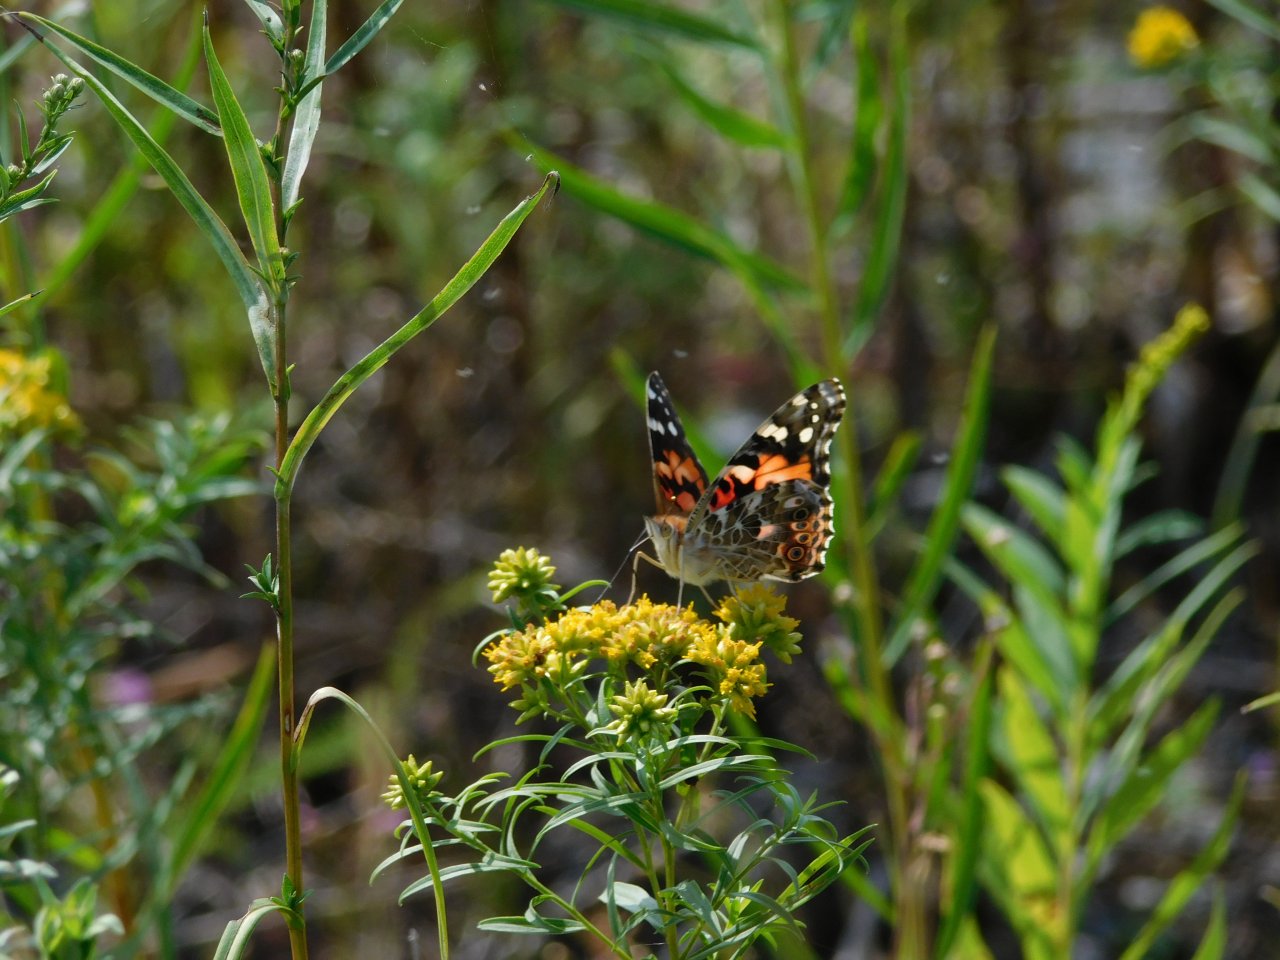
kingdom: Animalia
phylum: Arthropoda
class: Insecta
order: Lepidoptera
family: Nymphalidae
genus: Vanessa
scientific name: Vanessa cardui
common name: Painted Lady
